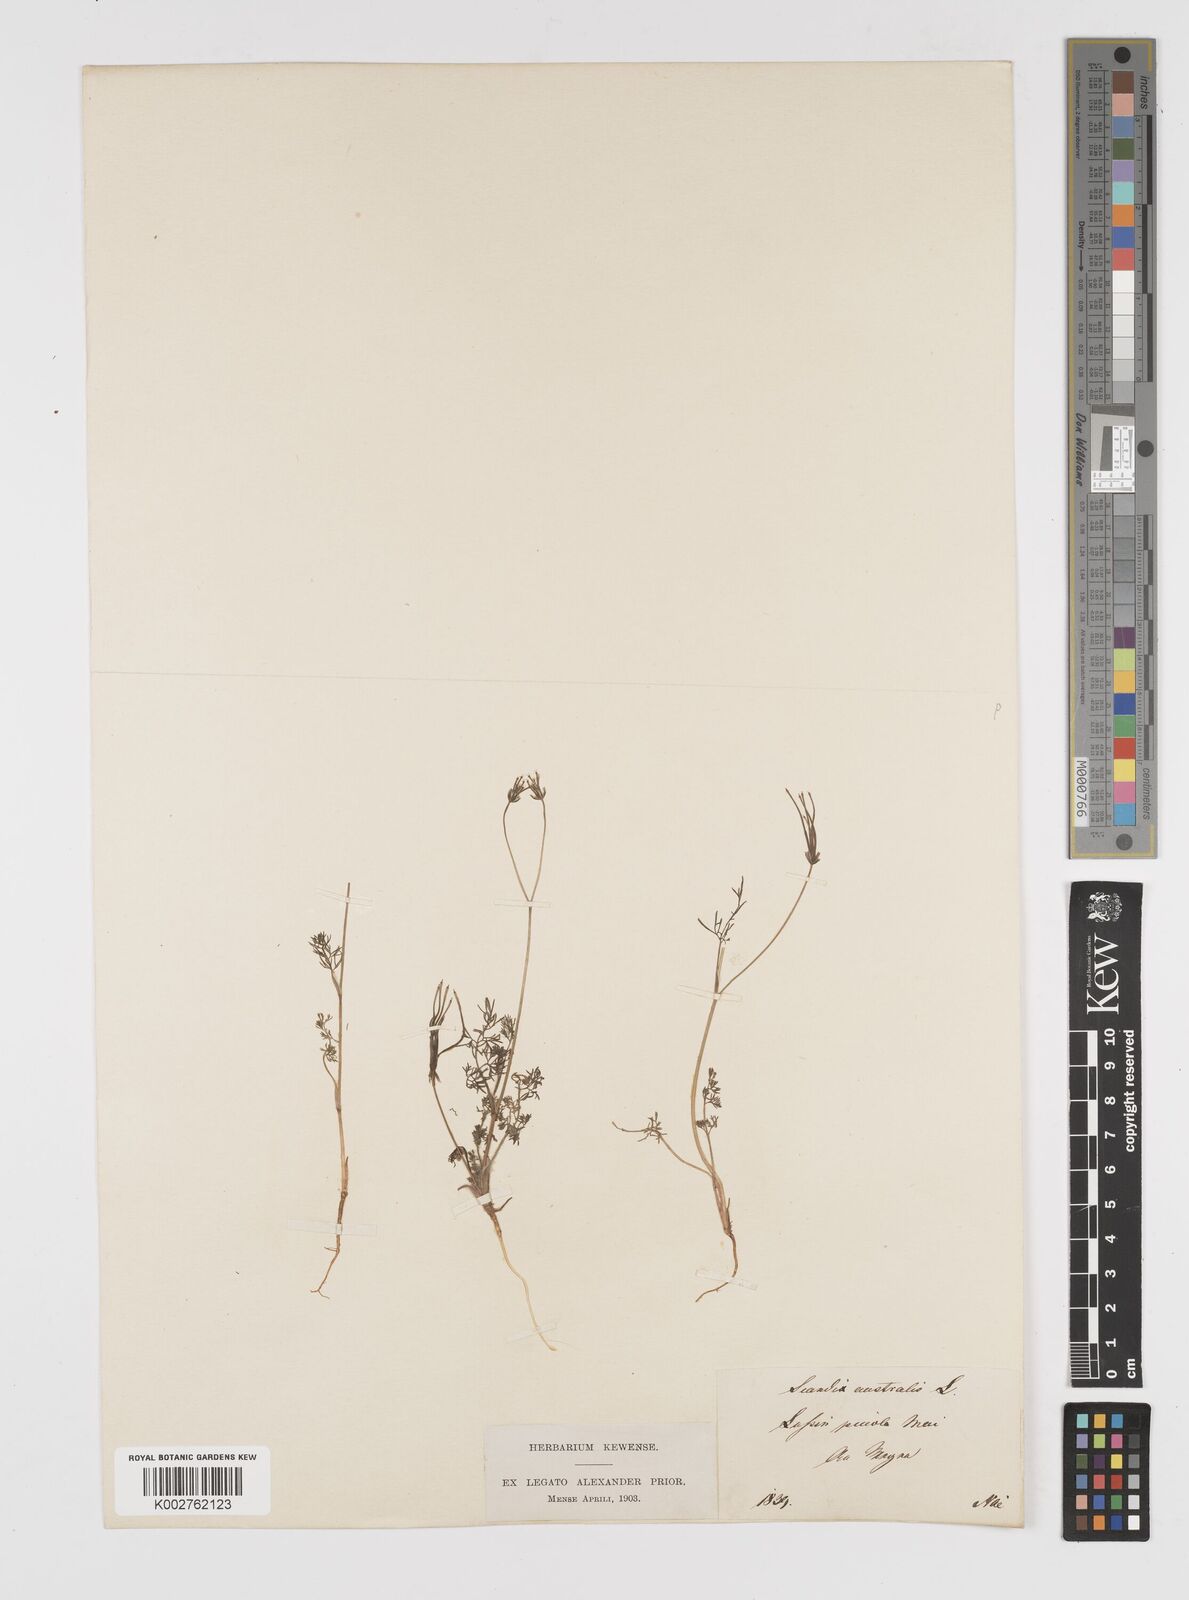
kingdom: Plantae
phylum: Tracheophyta
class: Magnoliopsida
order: Apiales
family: Apiaceae
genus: Scandix
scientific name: Scandix australis
